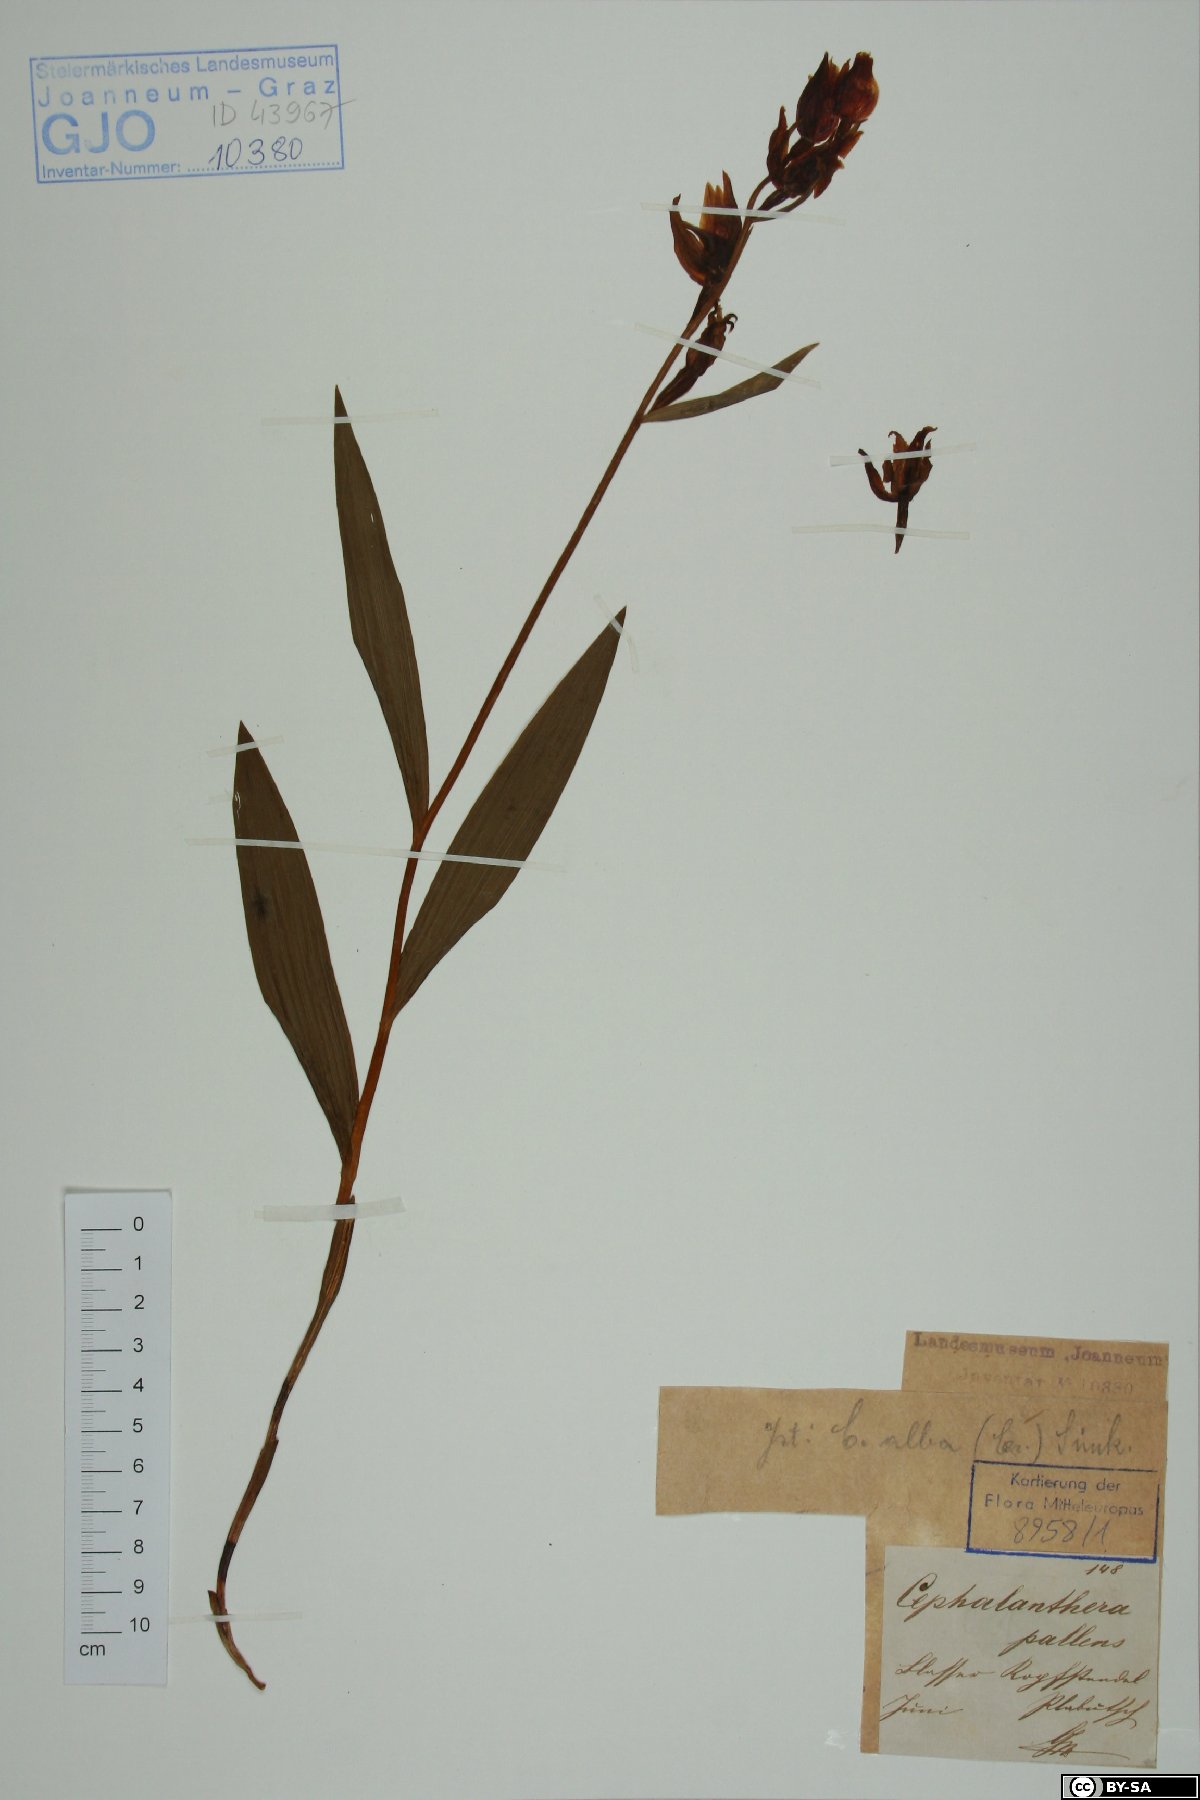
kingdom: Plantae
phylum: Tracheophyta
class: Liliopsida
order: Asparagales
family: Orchidaceae
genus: Cephalanthera
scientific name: Cephalanthera longifolia
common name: Narrow-leaved helleborine
